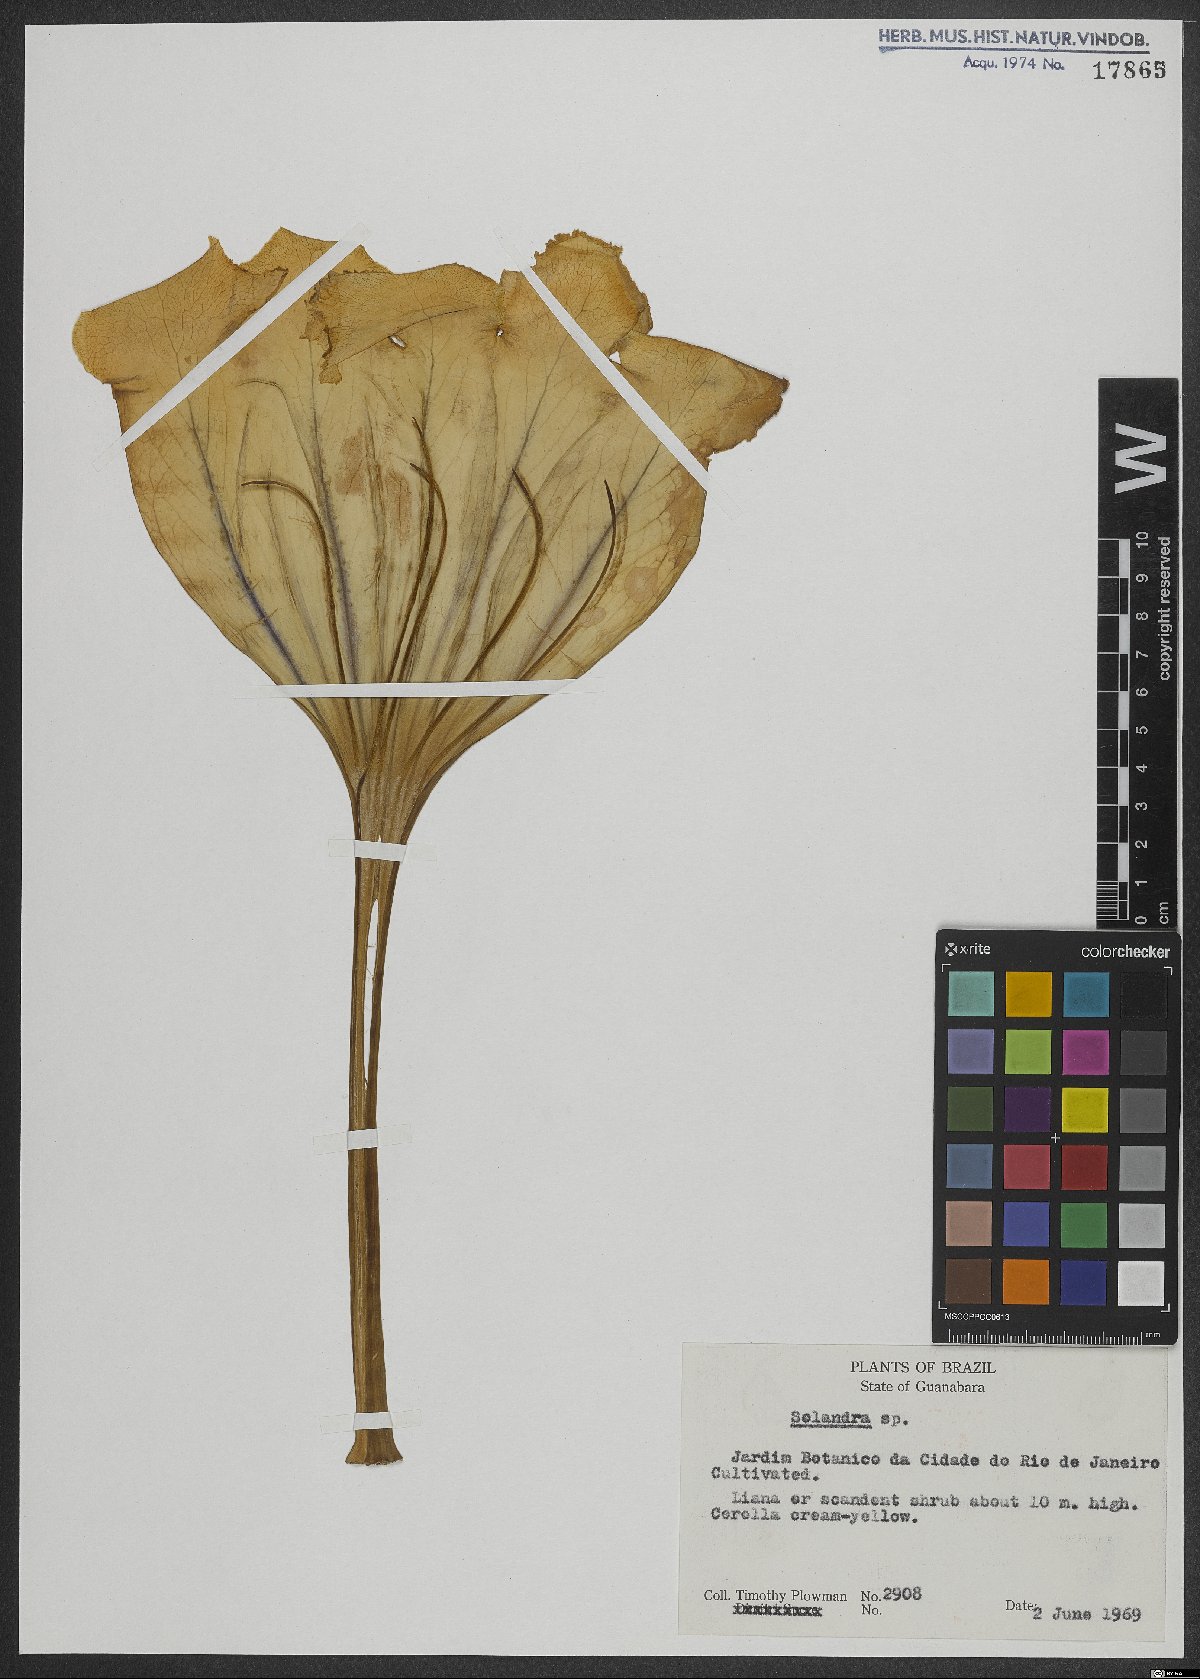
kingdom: Plantae
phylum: Tracheophyta
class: Magnoliopsida
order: Solanales
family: Solanaceae
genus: Solandra
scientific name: Solandra
